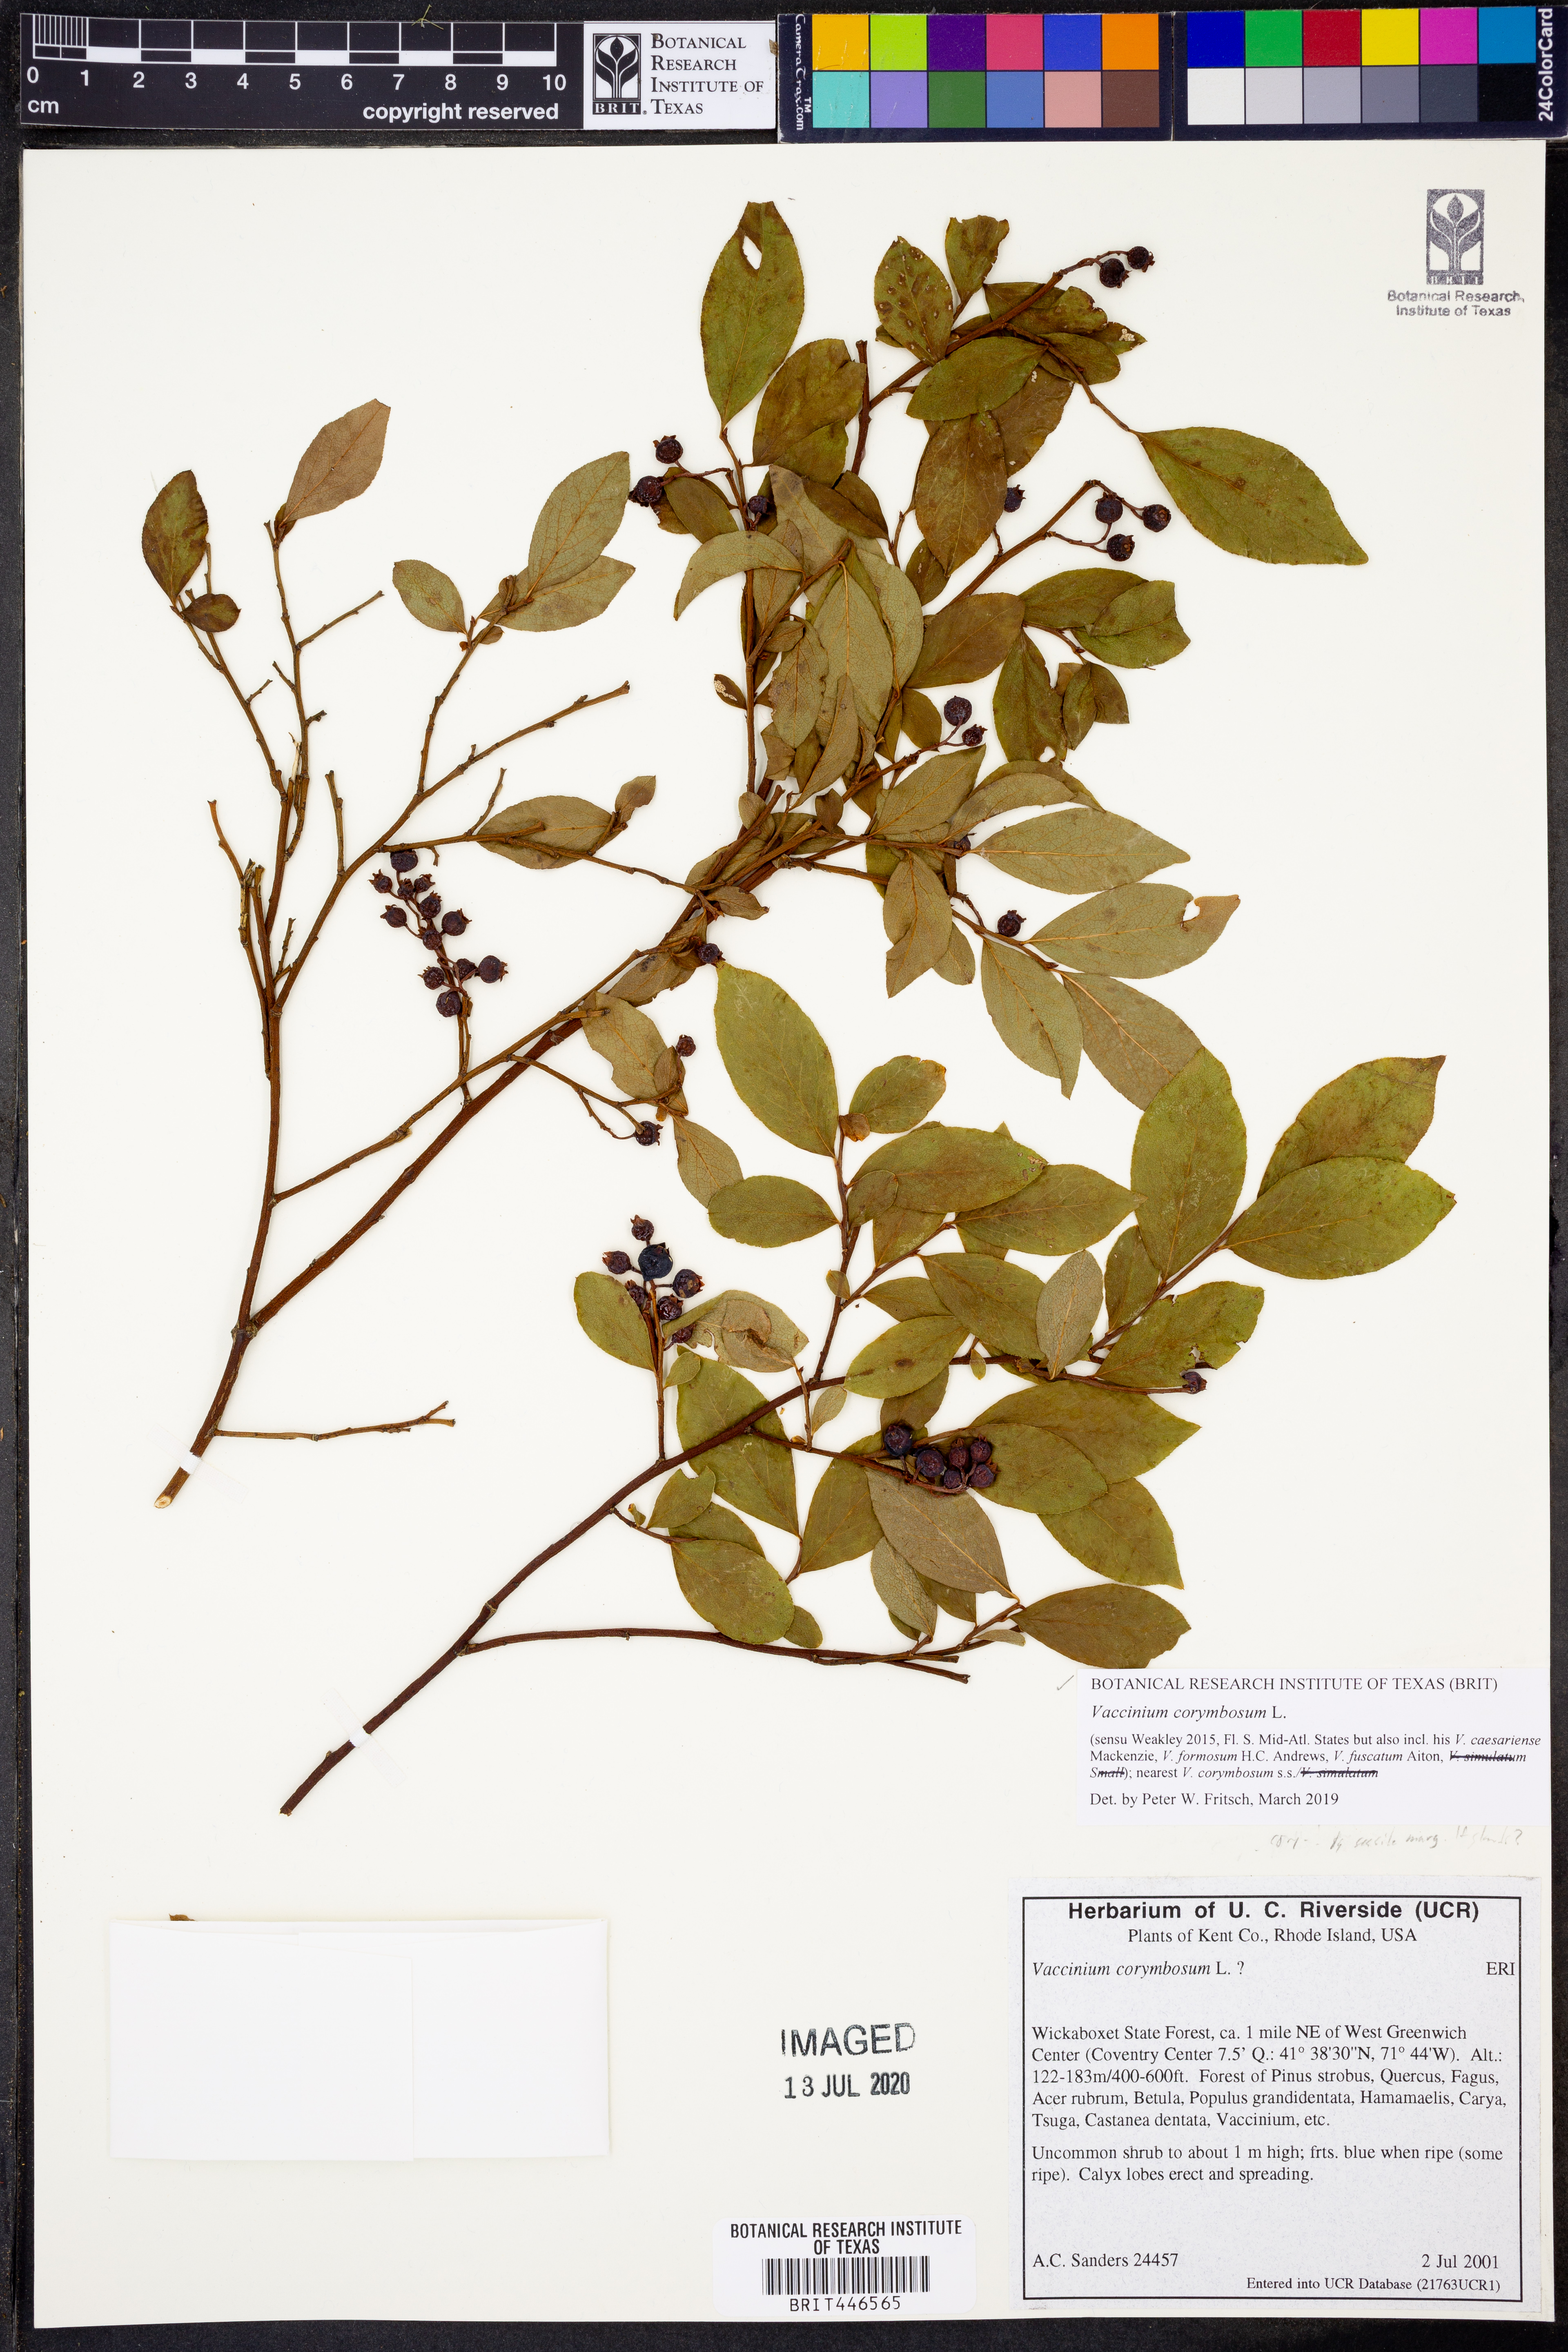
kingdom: Plantae
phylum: Tracheophyta
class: Magnoliopsida
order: Ericales
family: Ericaceae
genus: Vaccinium
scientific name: Vaccinium corymbosum
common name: Blueberry
